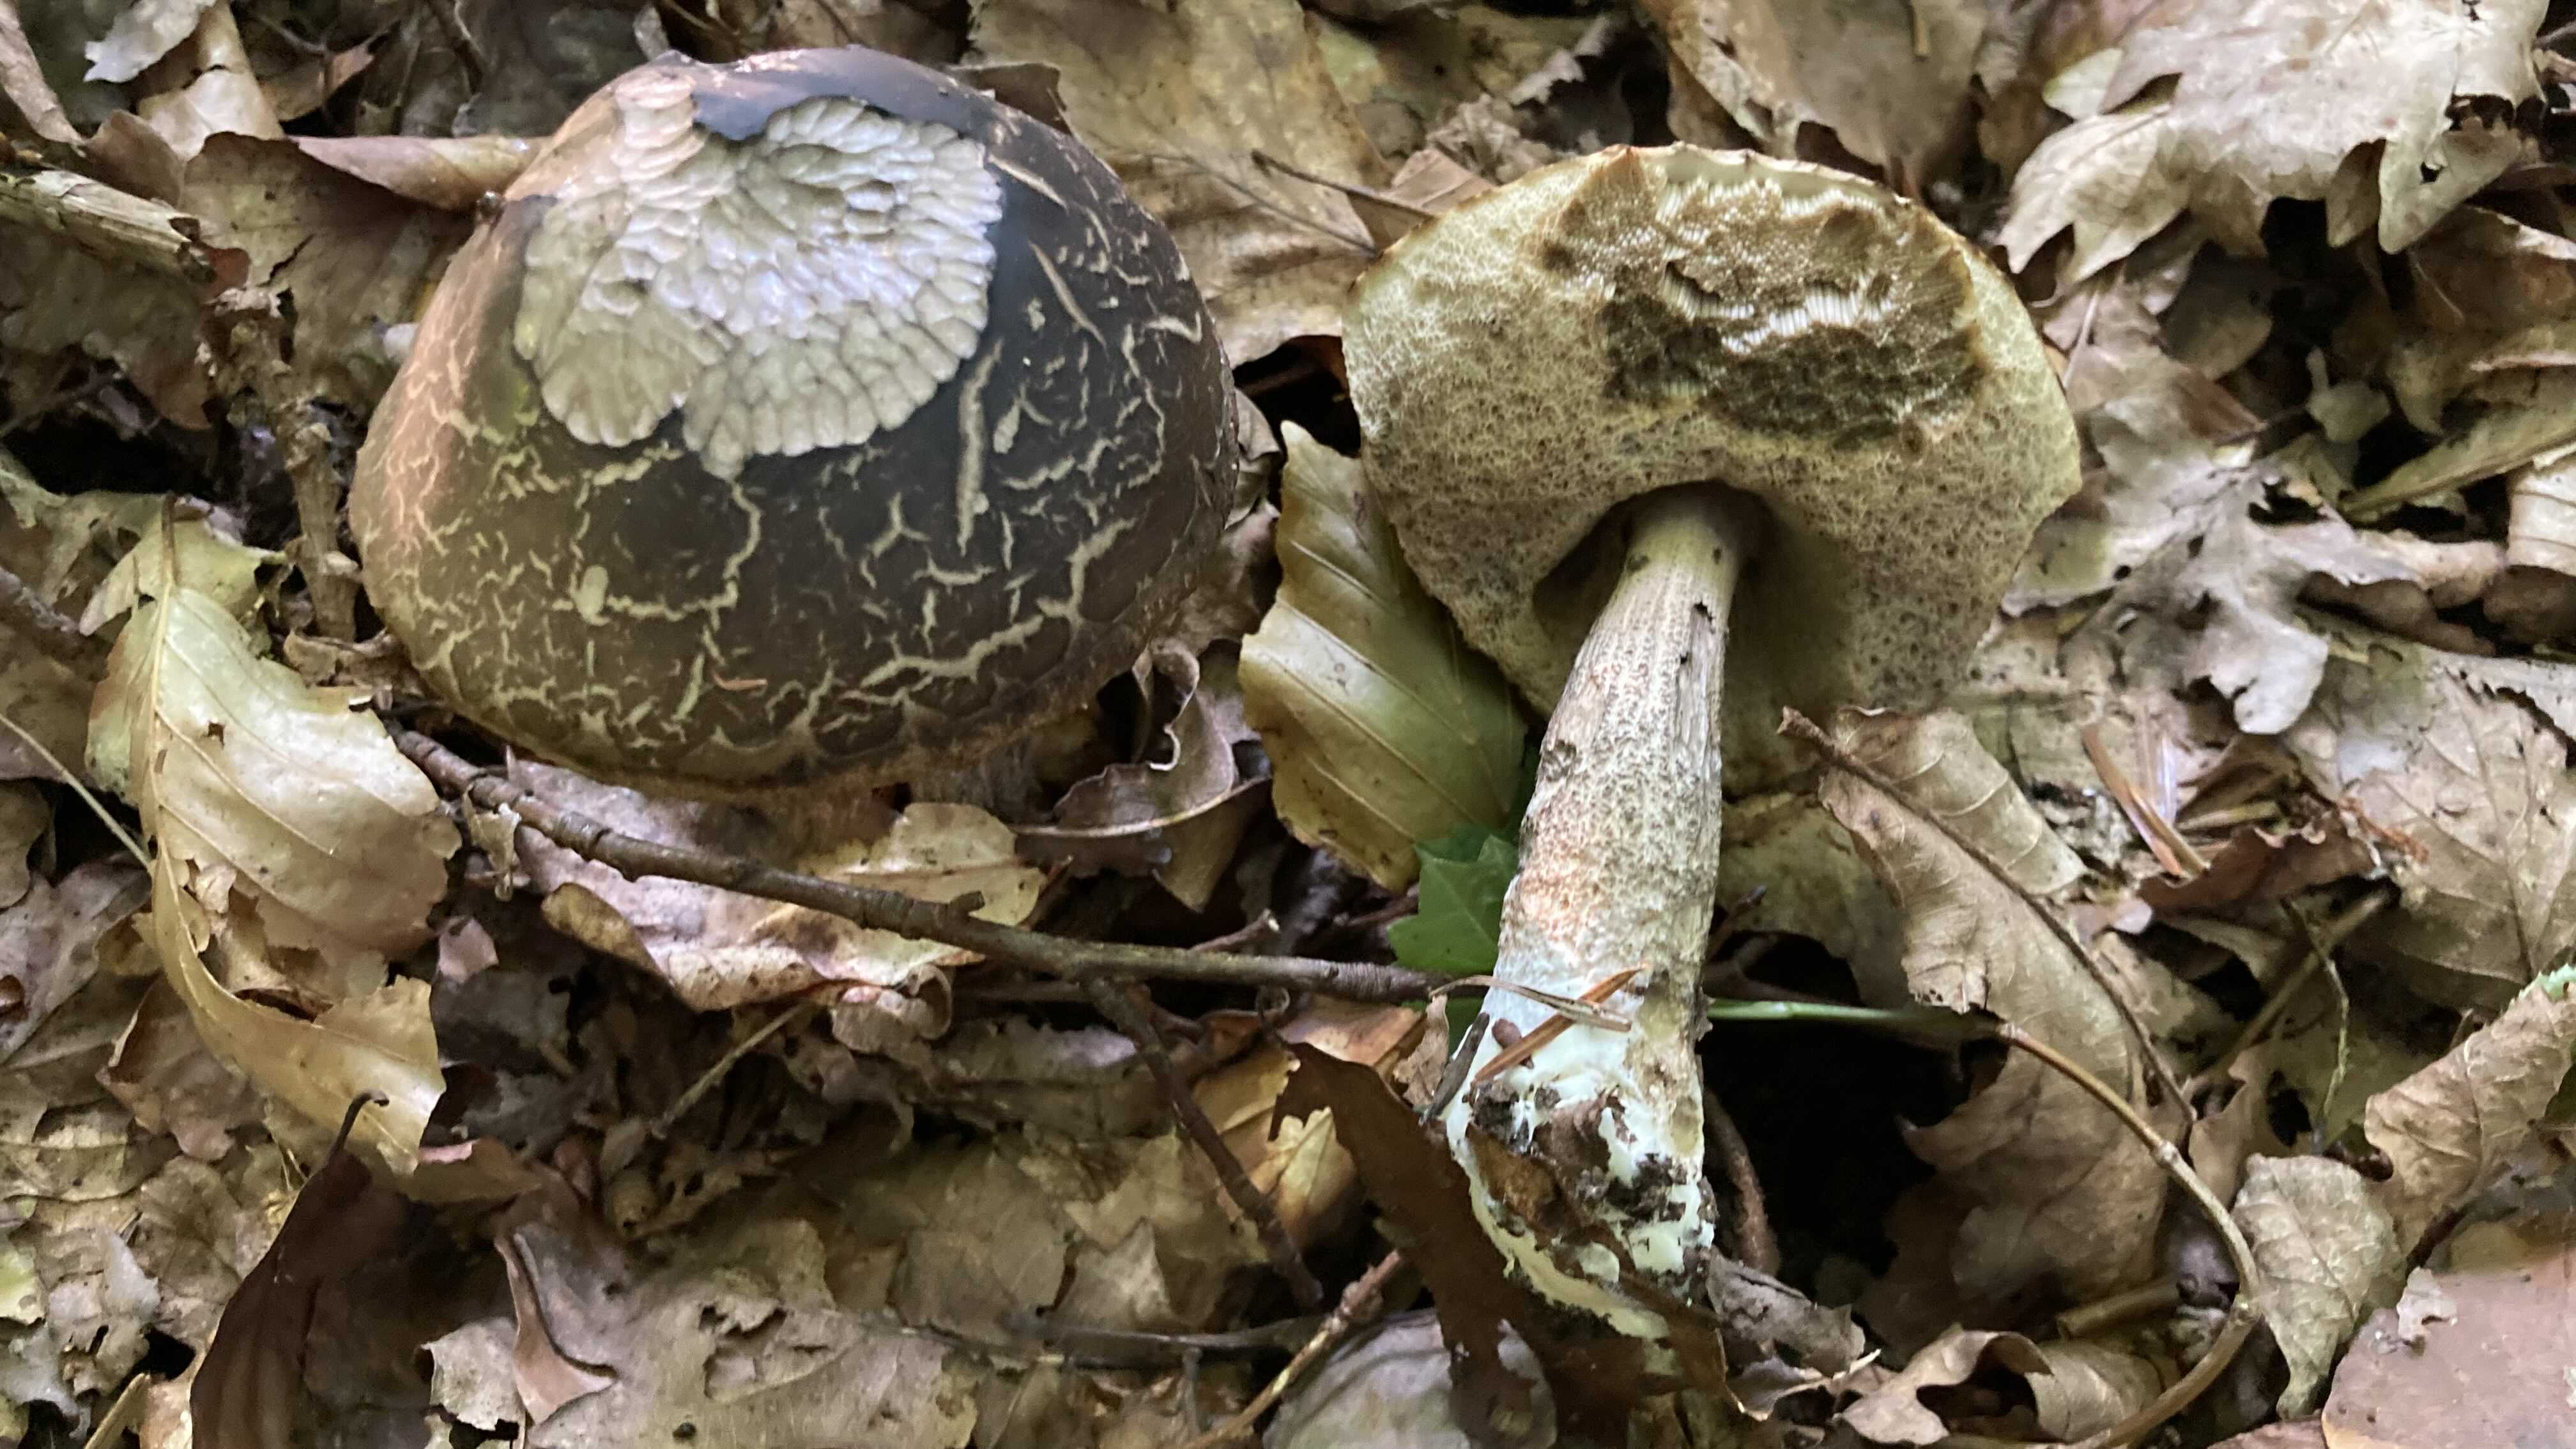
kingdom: Fungi
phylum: Basidiomycota
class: Agaricomycetes
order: Boletales
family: Boletaceae
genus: Leccinellum
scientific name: Leccinellum pseudoscabrum
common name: avnbøg-skælrørhat
